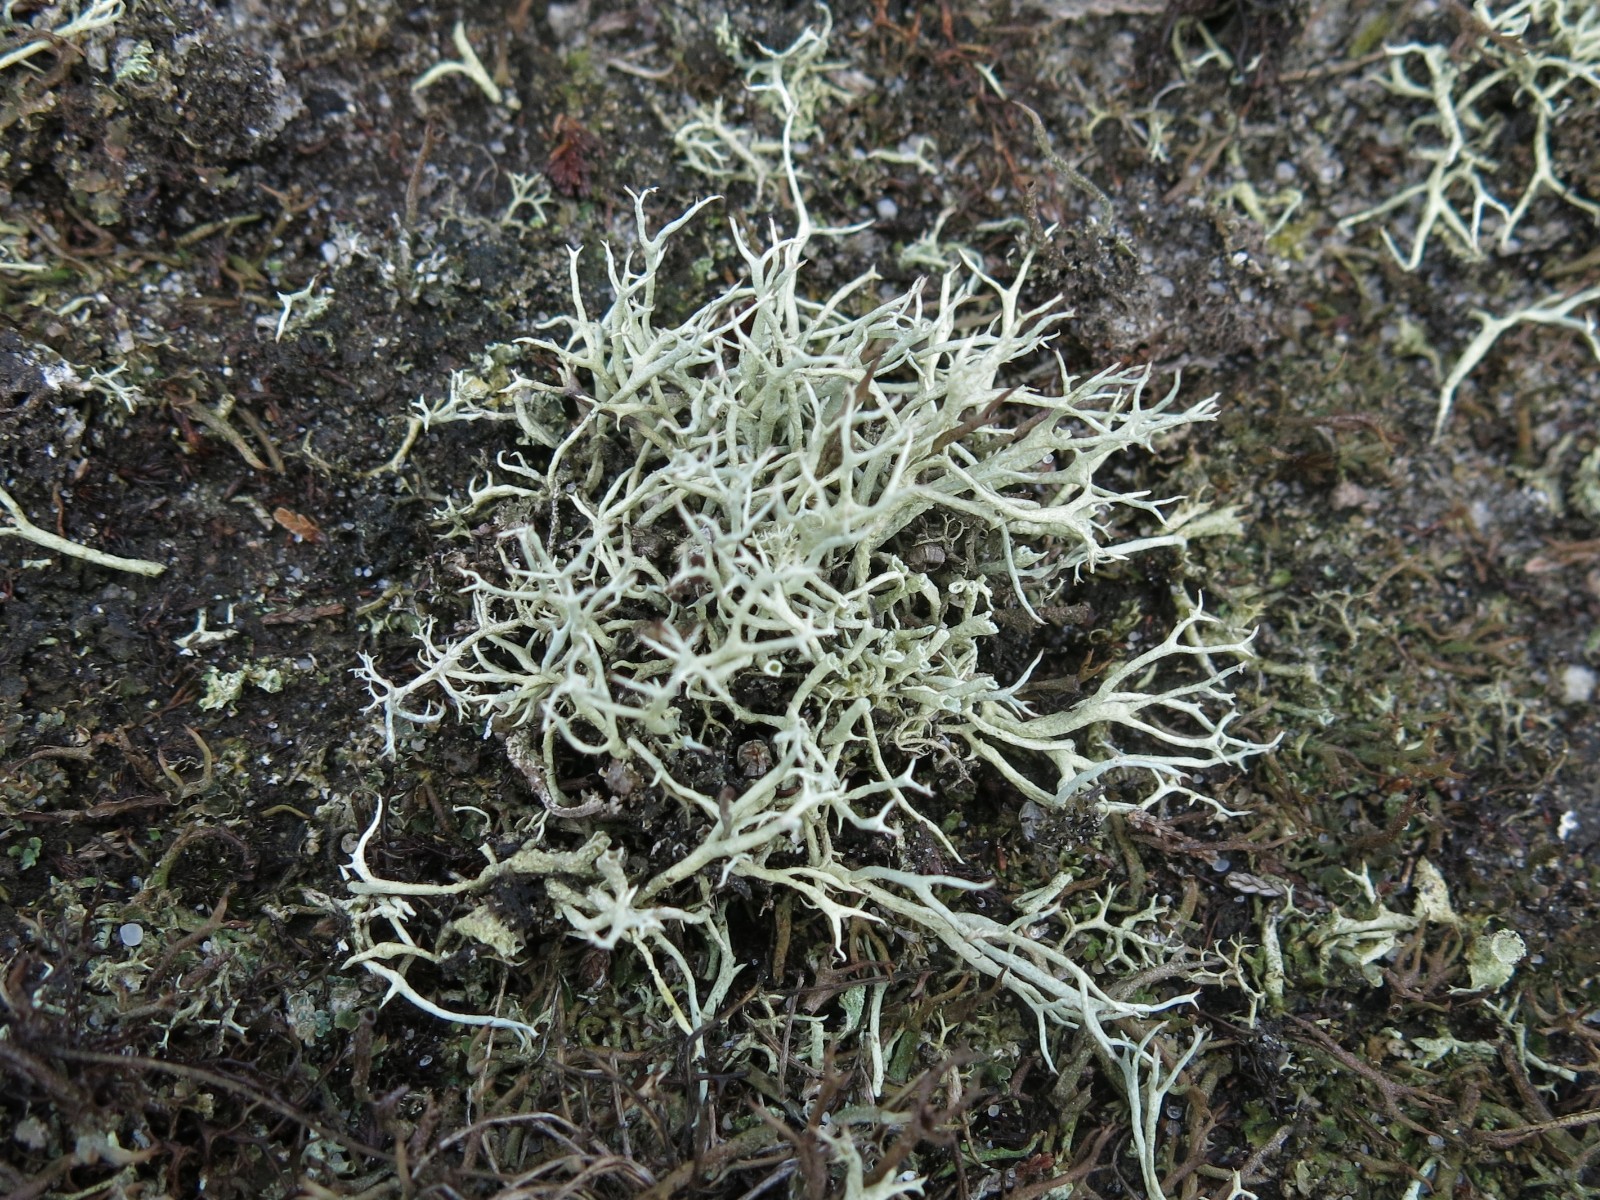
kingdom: Fungi
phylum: Ascomycota
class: Lecanoromycetes
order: Lecanorales
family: Cladoniaceae
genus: Cladonia
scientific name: Cladonia zopfii
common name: klit-bægerlav
